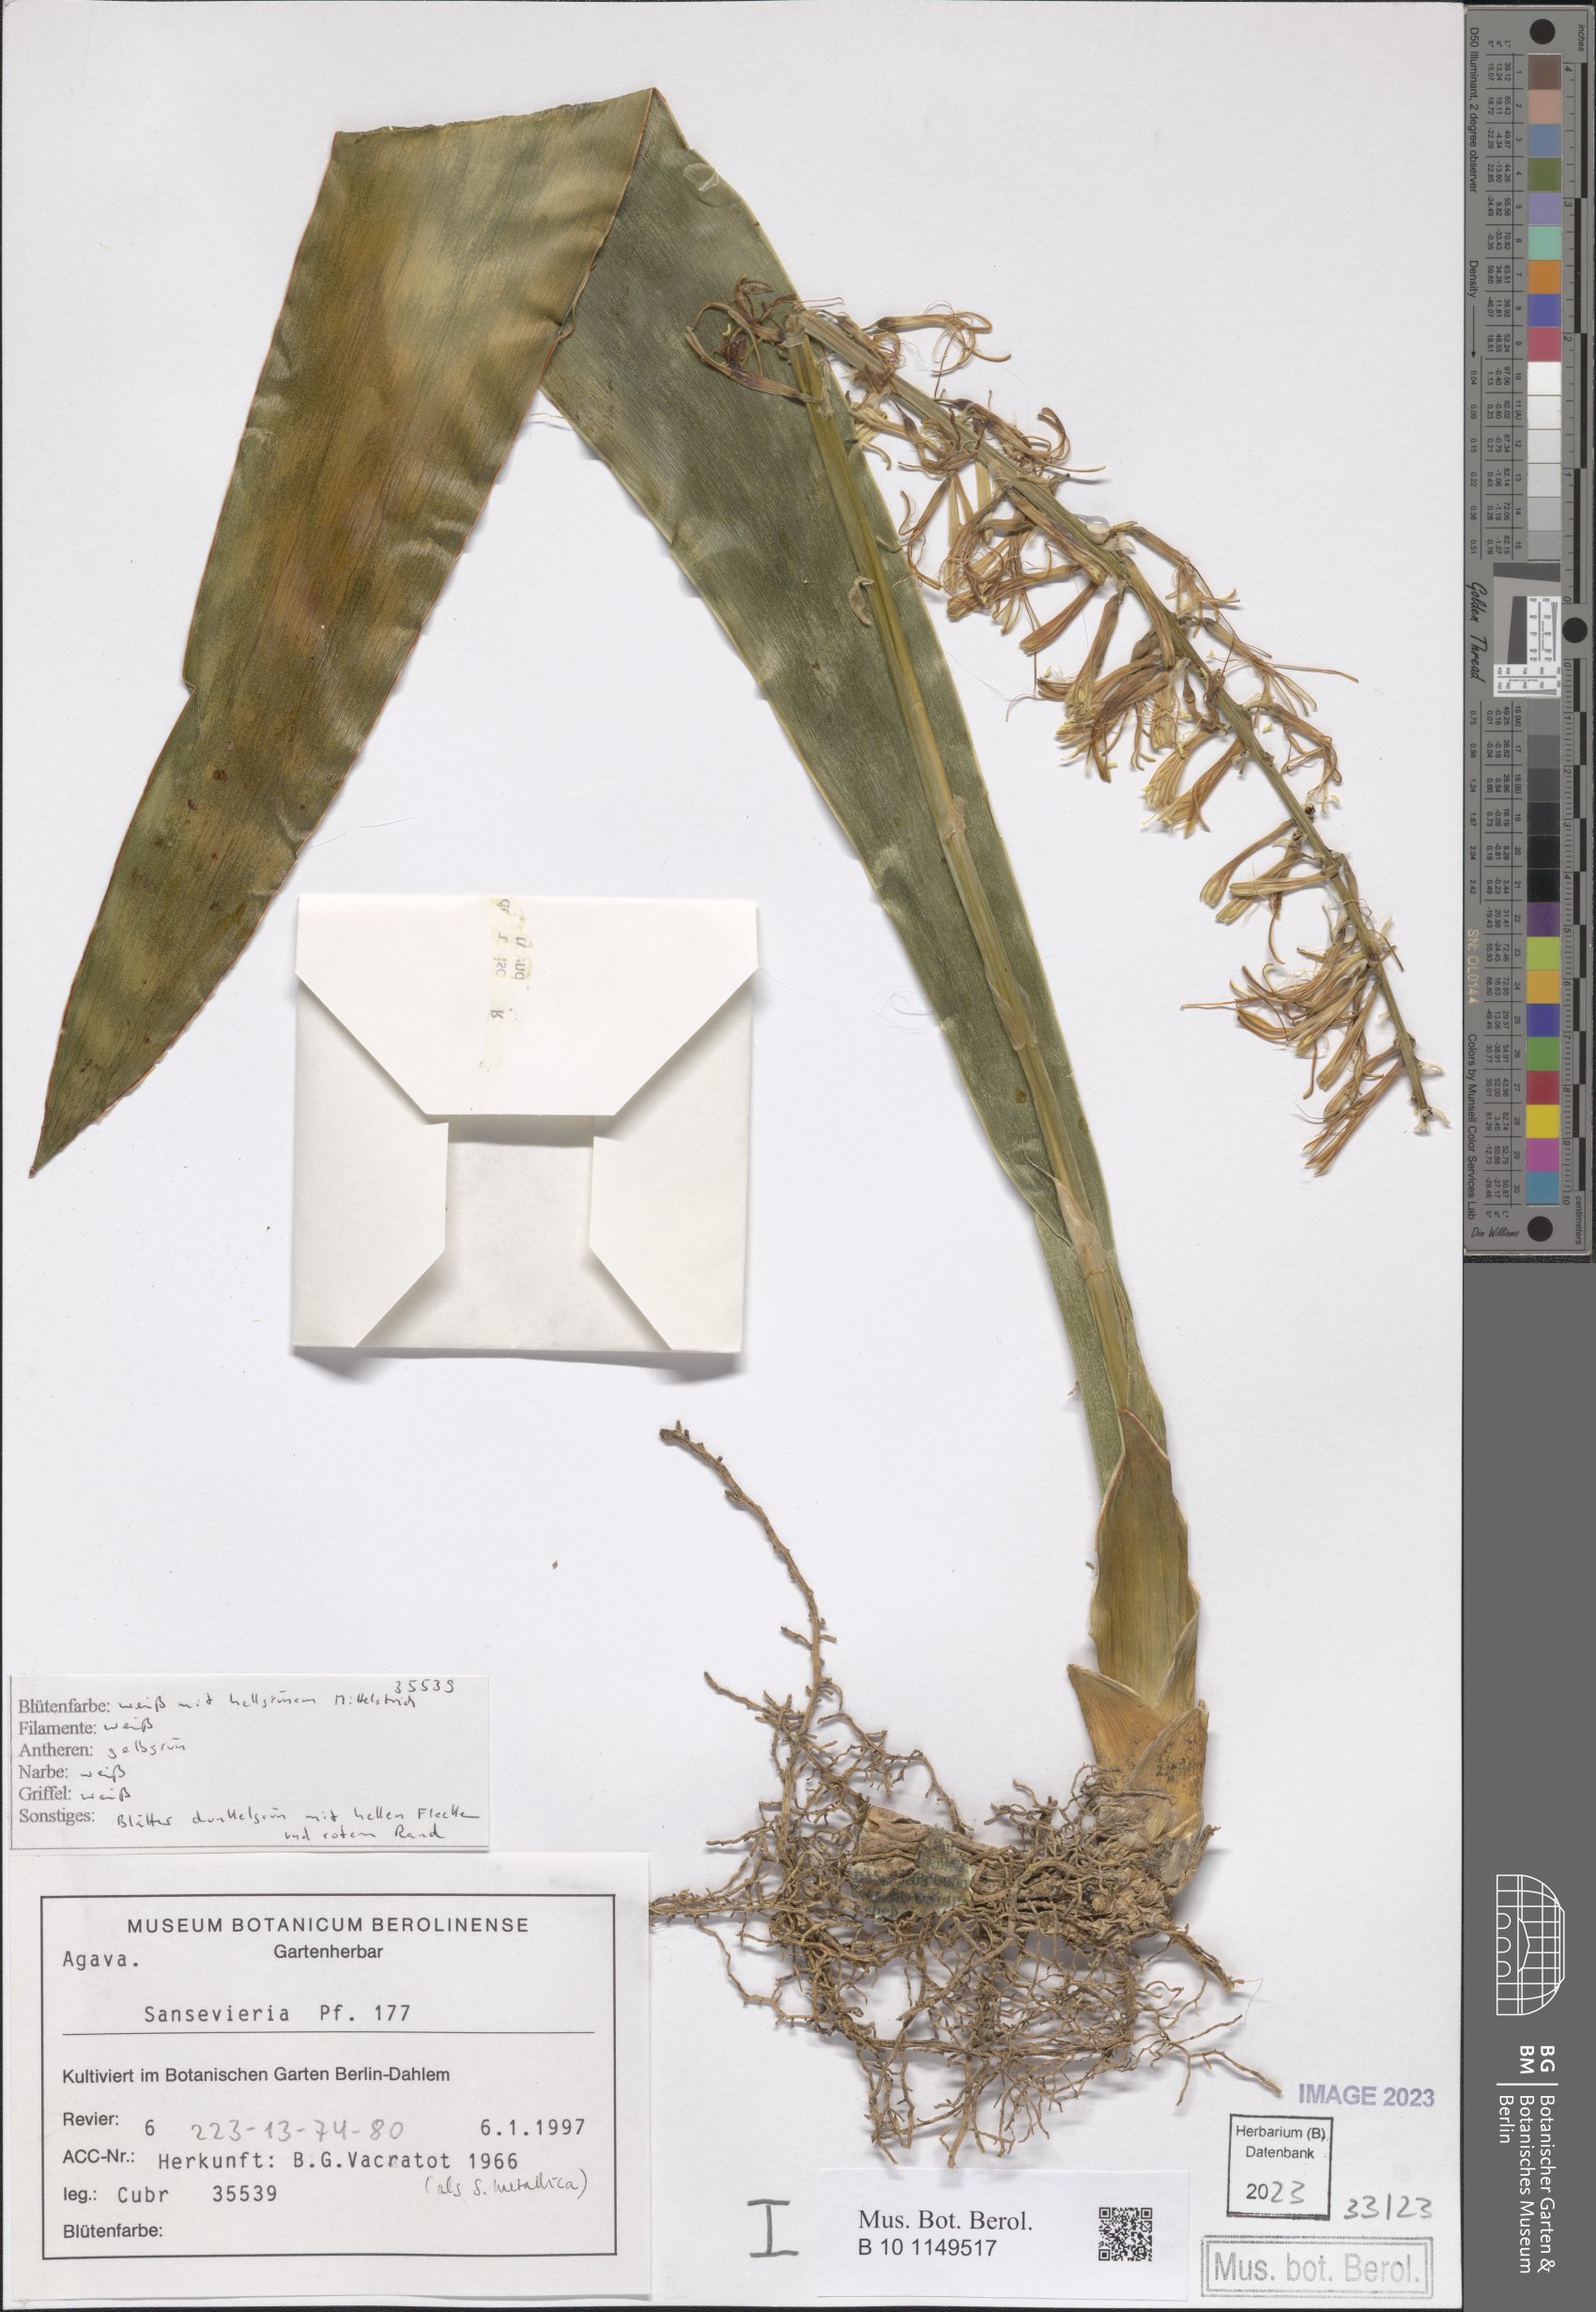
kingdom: Plantae
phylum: Tracheophyta
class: Liliopsida
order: Asparagales
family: Asparagaceae
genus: Dracaena
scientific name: Dracaena zebra
